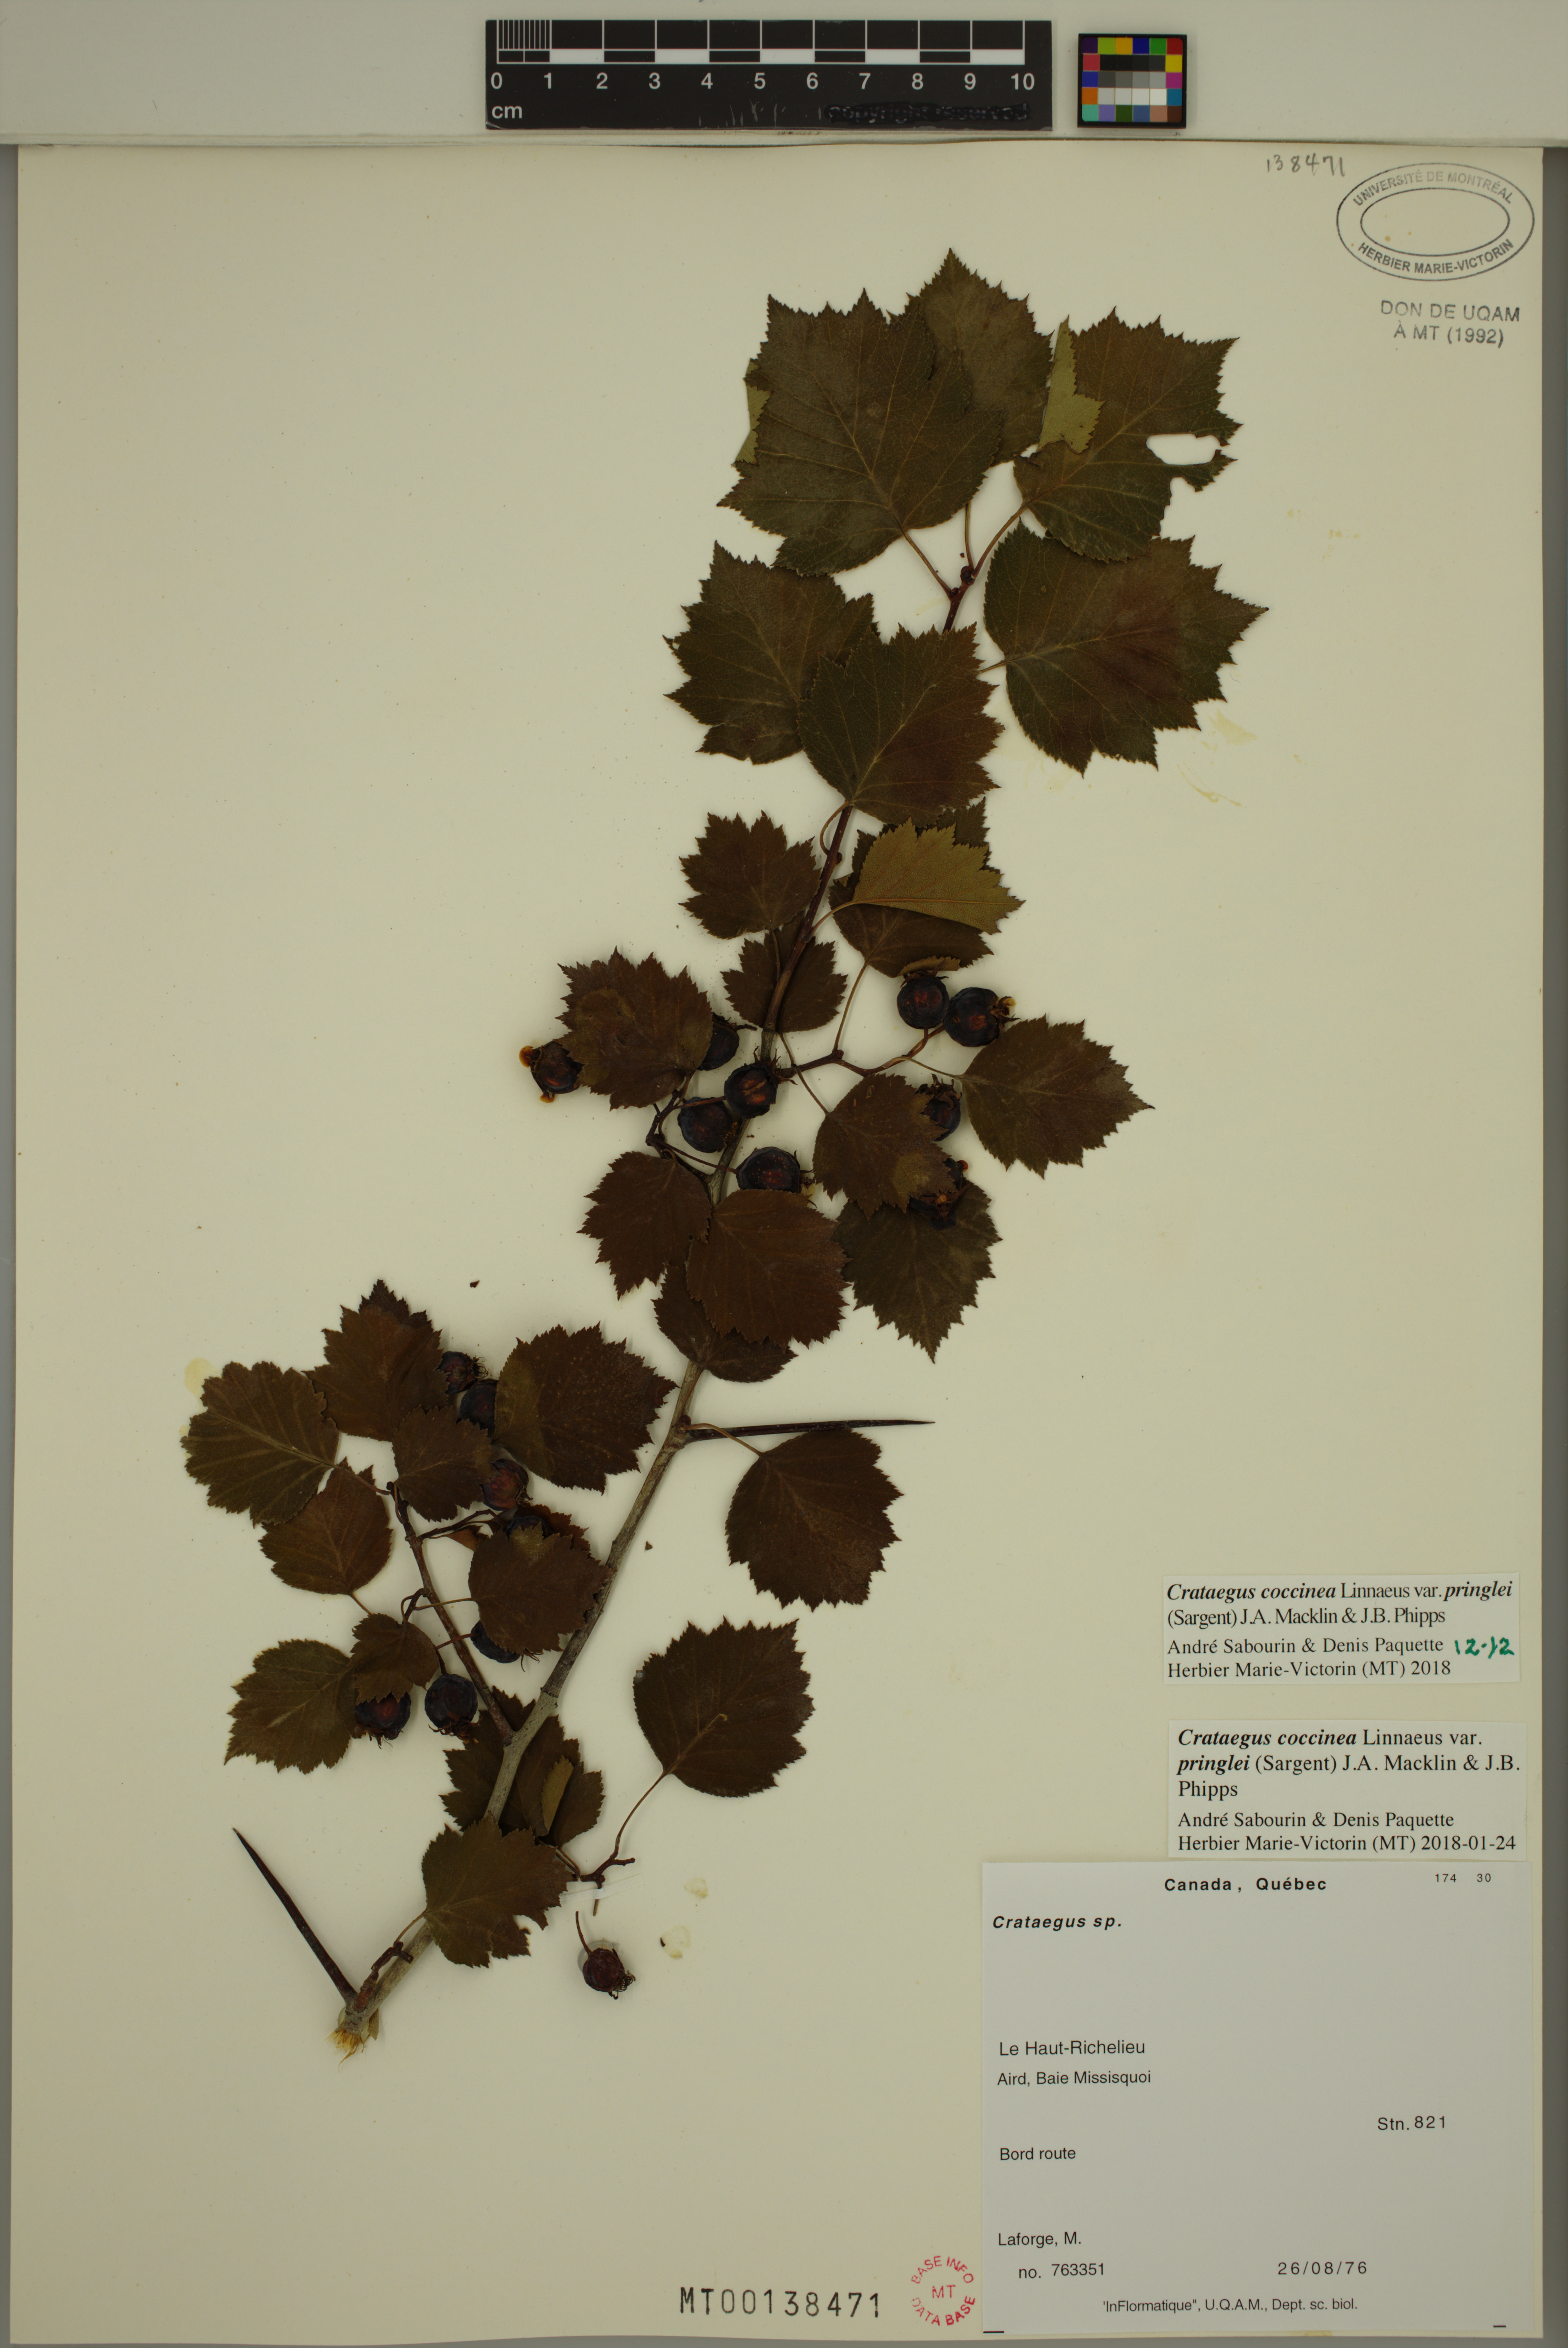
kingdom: Plantae
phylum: Tracheophyta
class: Magnoliopsida
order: Rosales
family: Rosaceae
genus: Crataegus
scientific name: Crataegus flabellata
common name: Bosc's hawthorn
